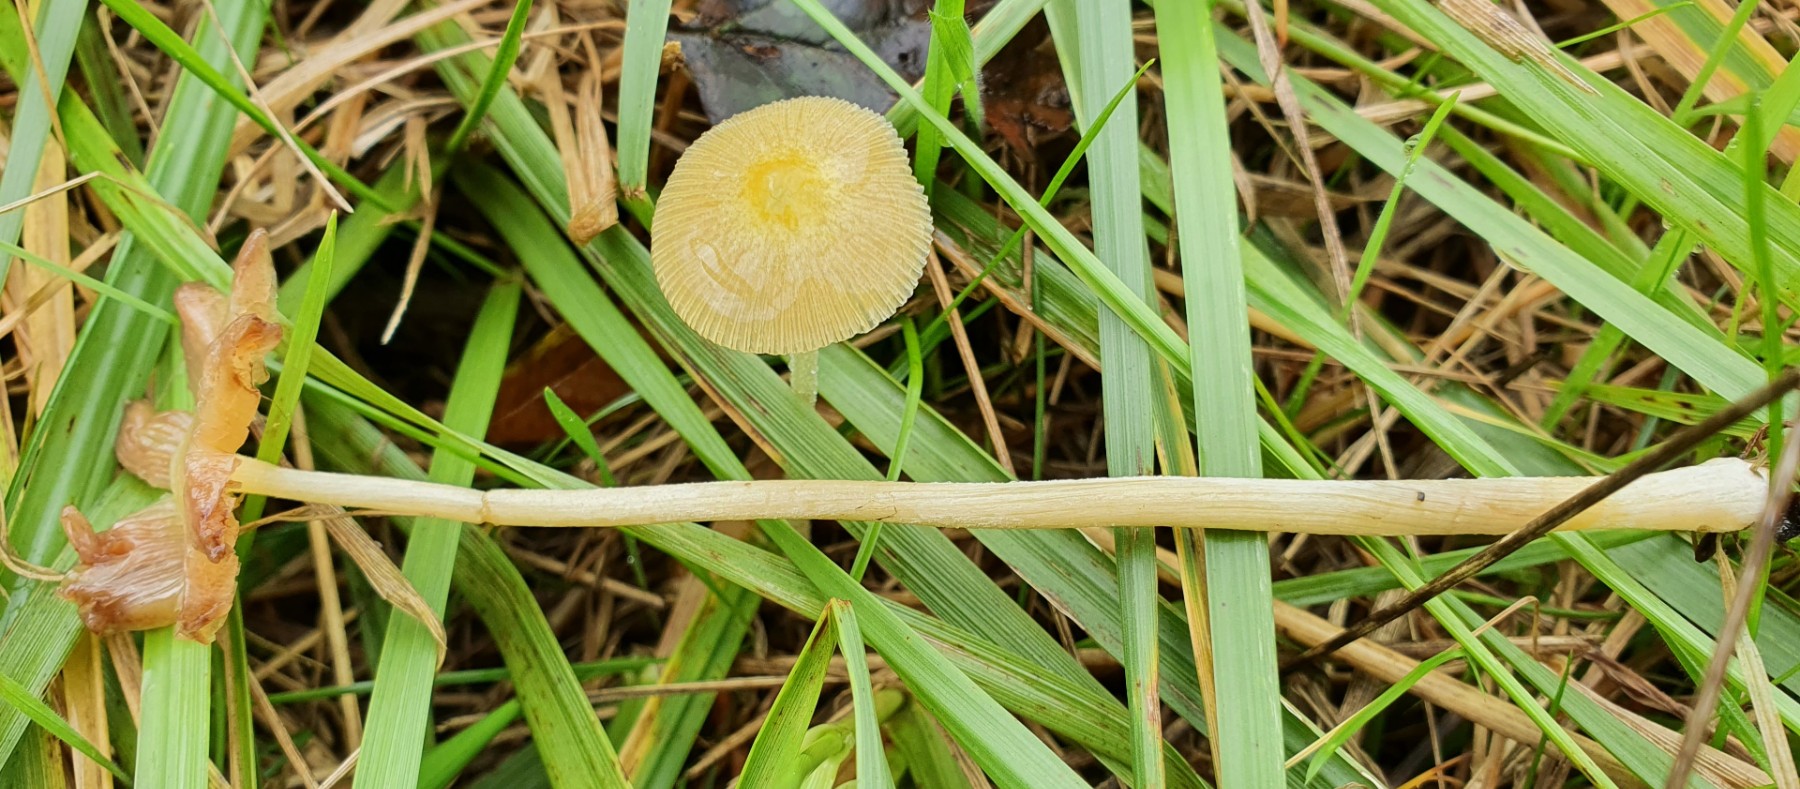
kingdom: Fungi
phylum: Basidiomycota
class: Agaricomycetes
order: Agaricales
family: Bolbitiaceae
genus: Bolbitius
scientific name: Bolbitius titubans
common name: almindelig gulhat
